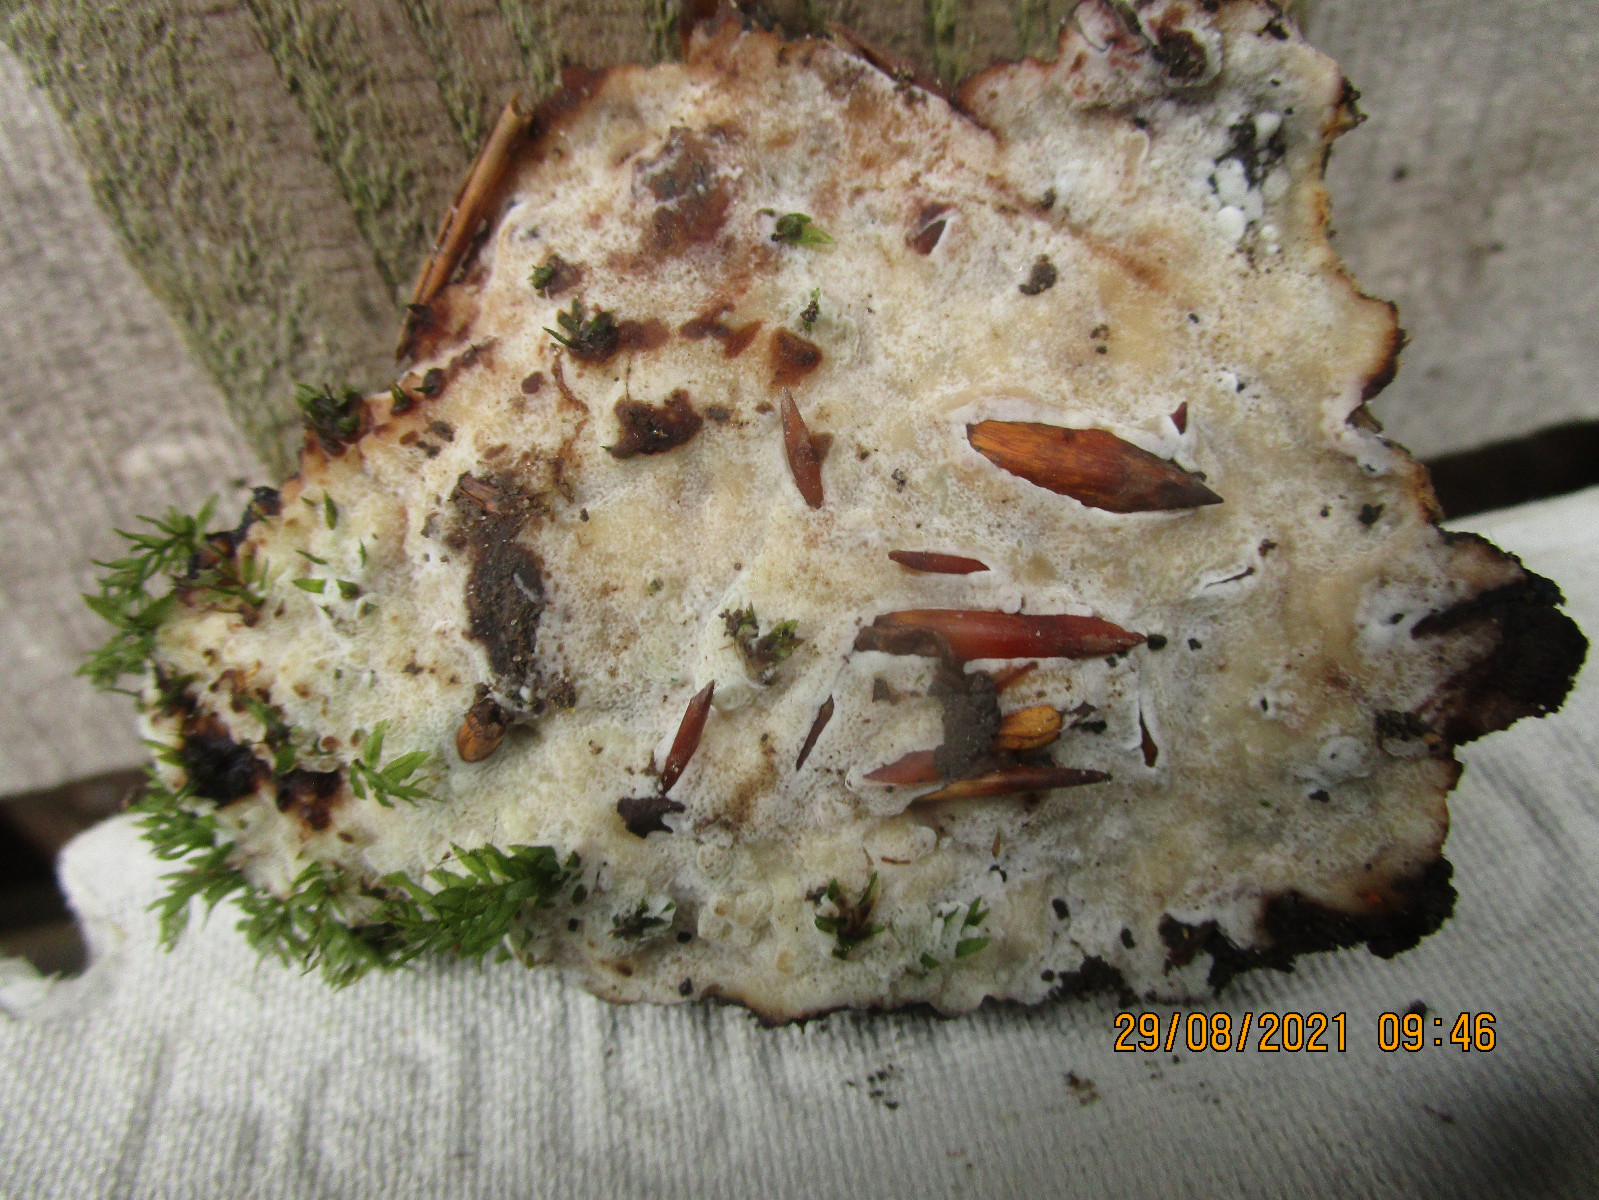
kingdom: Fungi
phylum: Basidiomycota
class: Agaricomycetes
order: Polyporales
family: Meripilaceae
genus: Rigidoporus
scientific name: Rigidoporus sanguinolentus
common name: blod-skorpeporesvamp
